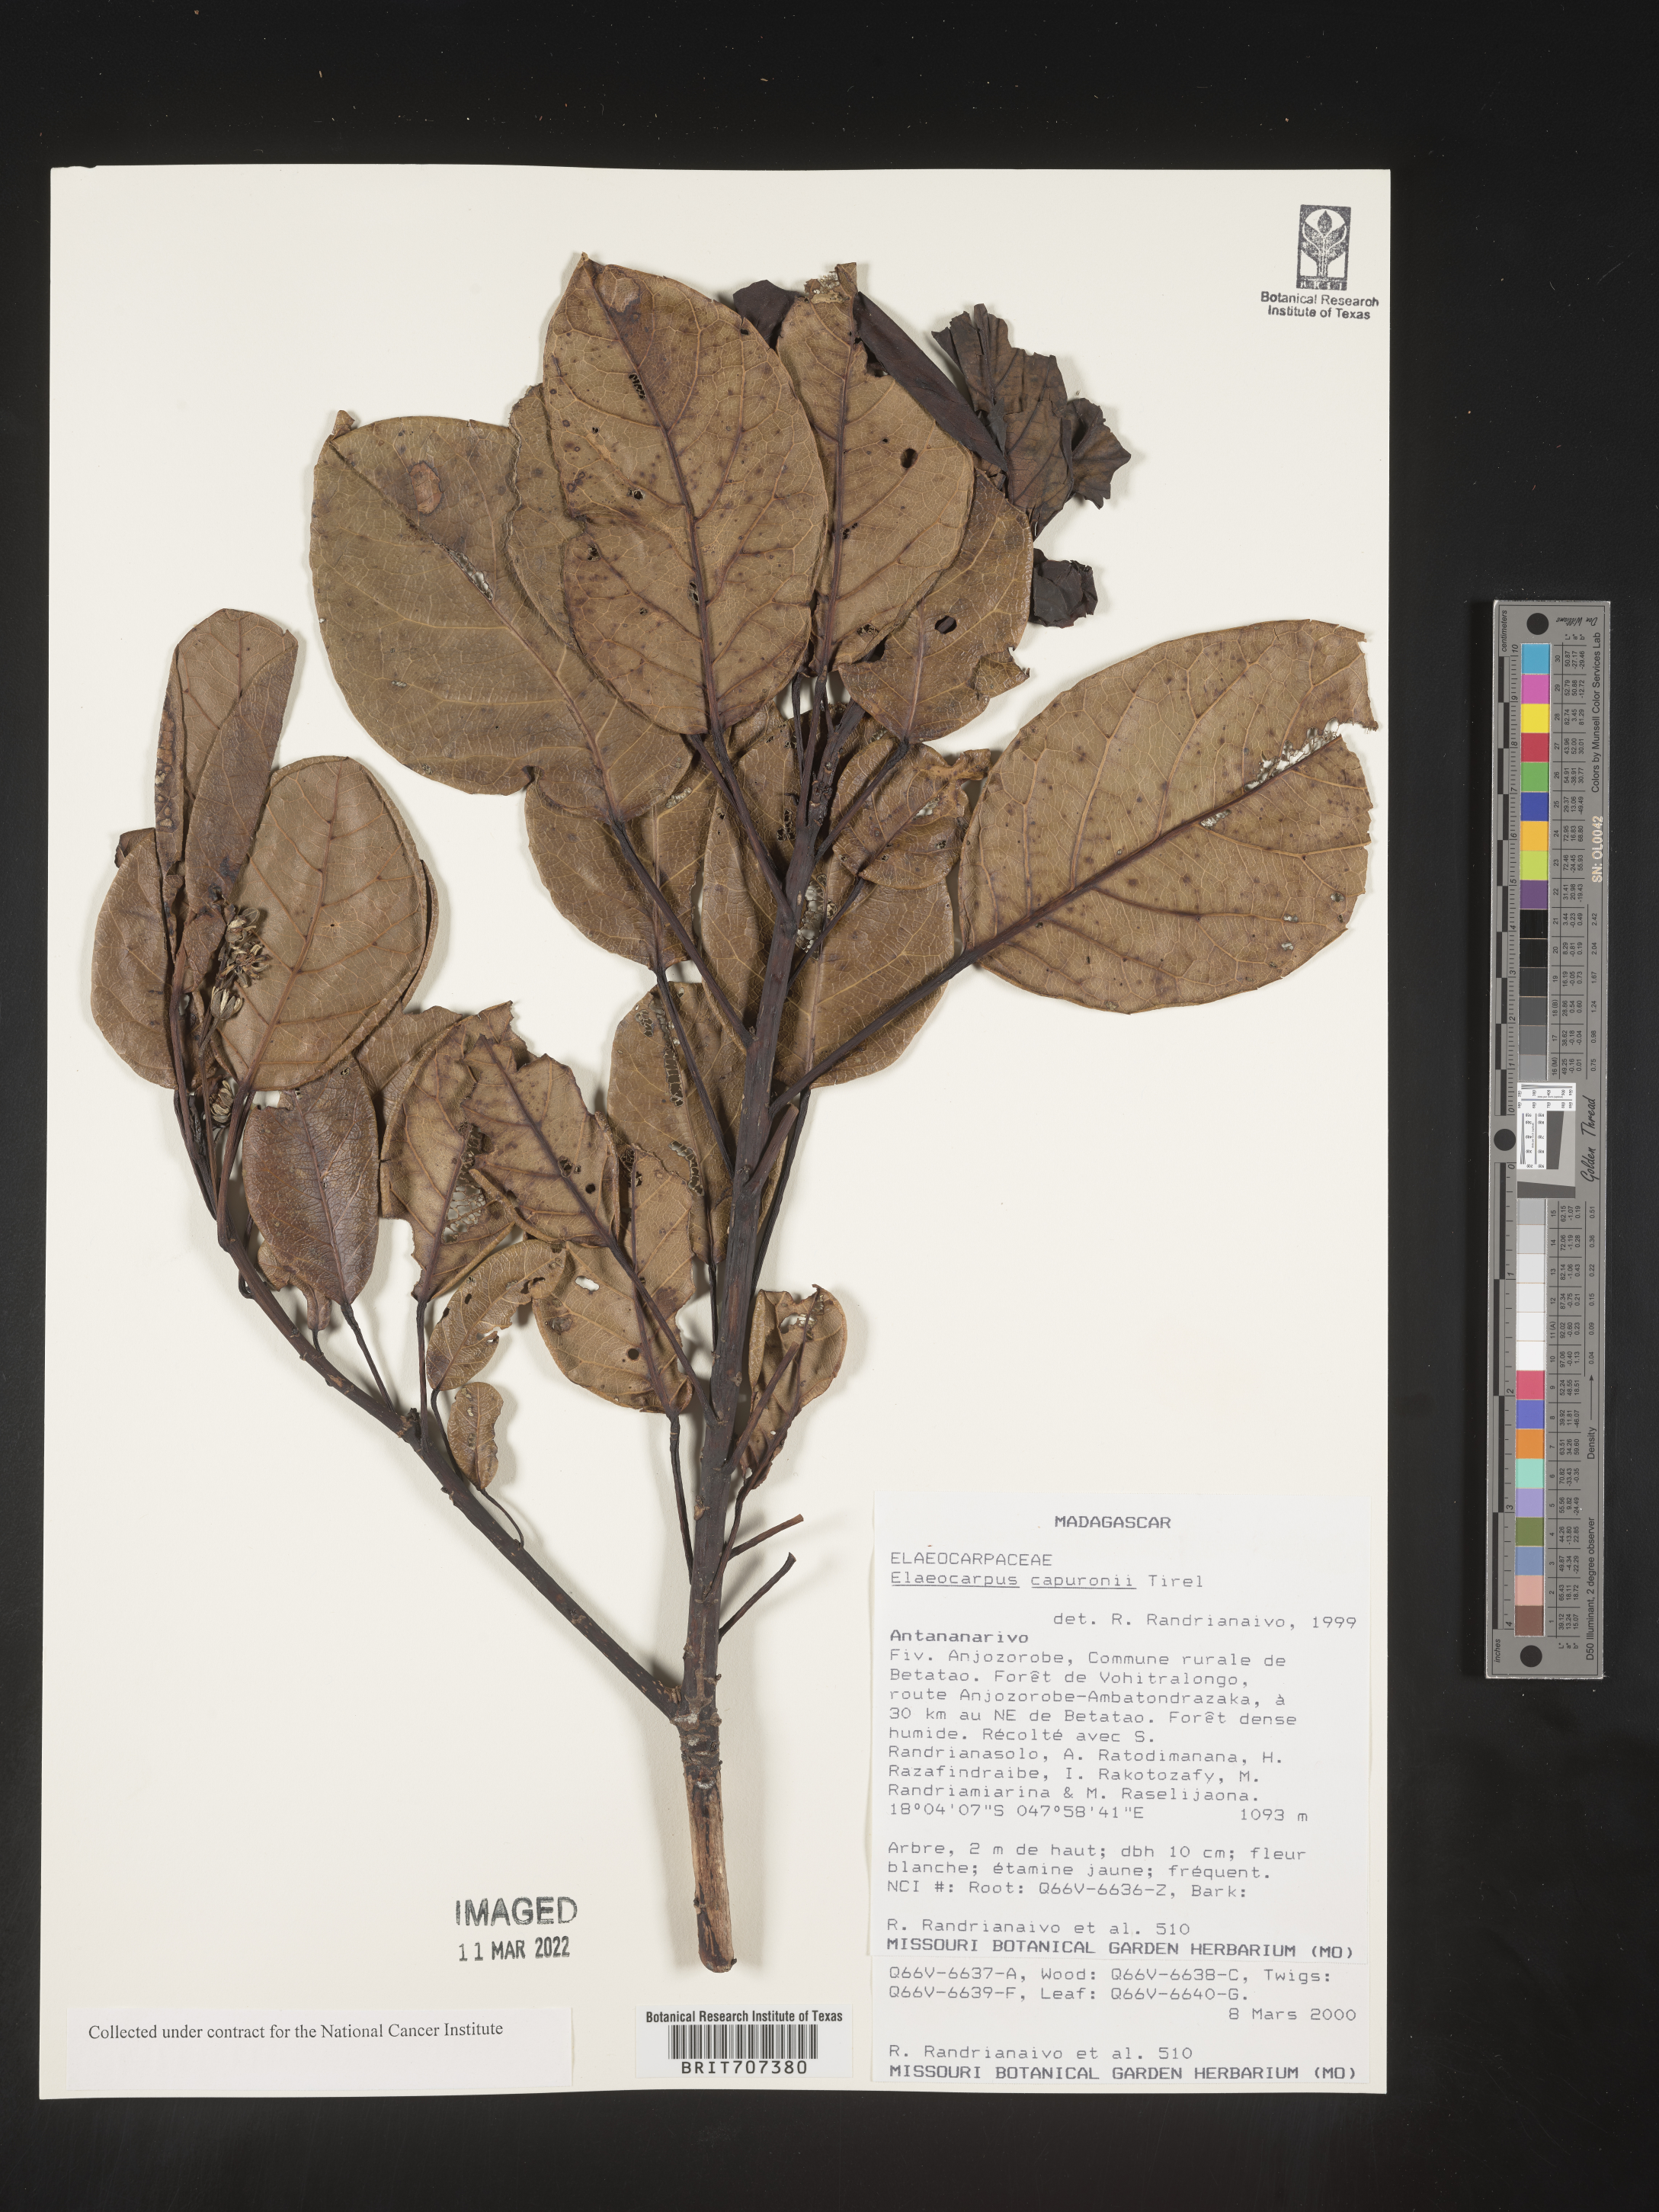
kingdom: Plantae
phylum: Tracheophyta
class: Magnoliopsida
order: Oxalidales
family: Elaeocarpaceae
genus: Elaeocarpus
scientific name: Elaeocarpus
